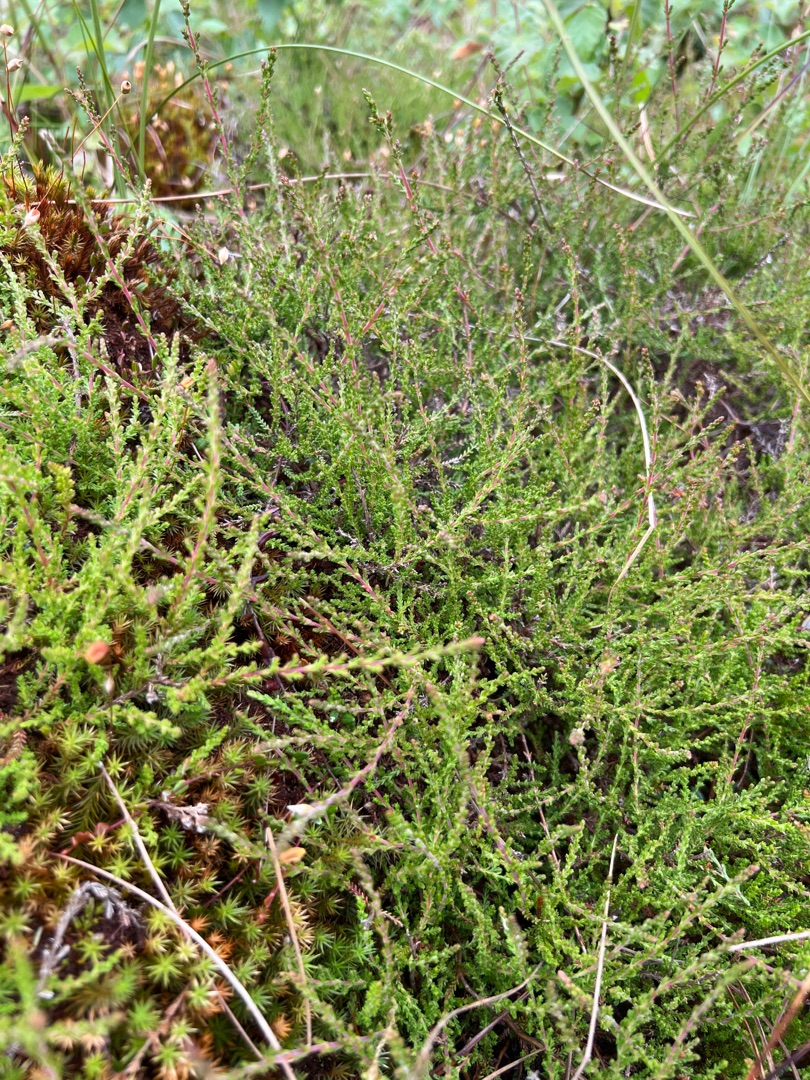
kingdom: Plantae
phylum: Tracheophyta
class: Magnoliopsida
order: Ericales
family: Ericaceae
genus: Calluna
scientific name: Calluna vulgaris
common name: Hedelyng
